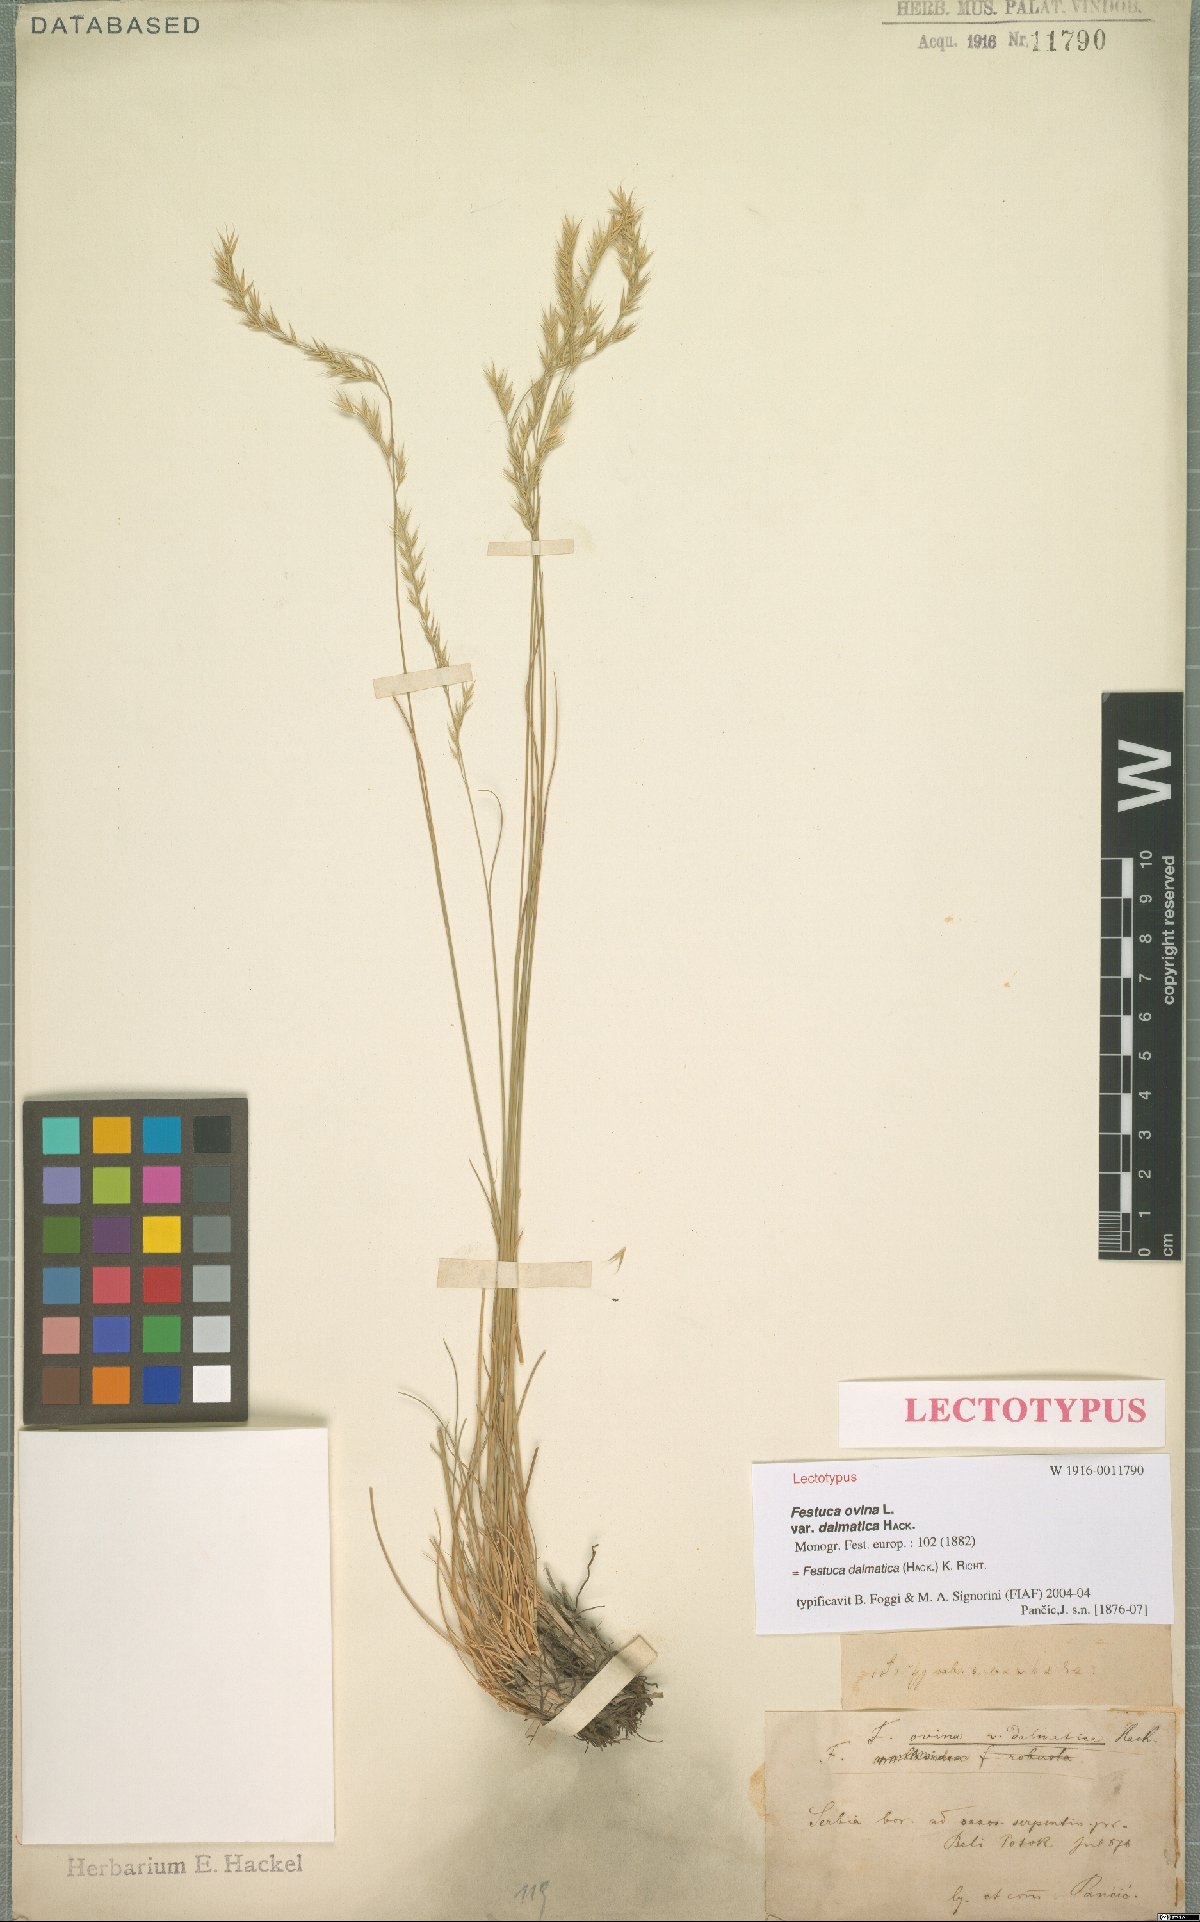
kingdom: Plantae
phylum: Tracheophyta
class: Liliopsida
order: Poales
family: Poaceae
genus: Festuca
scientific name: Festuca dalmatica
